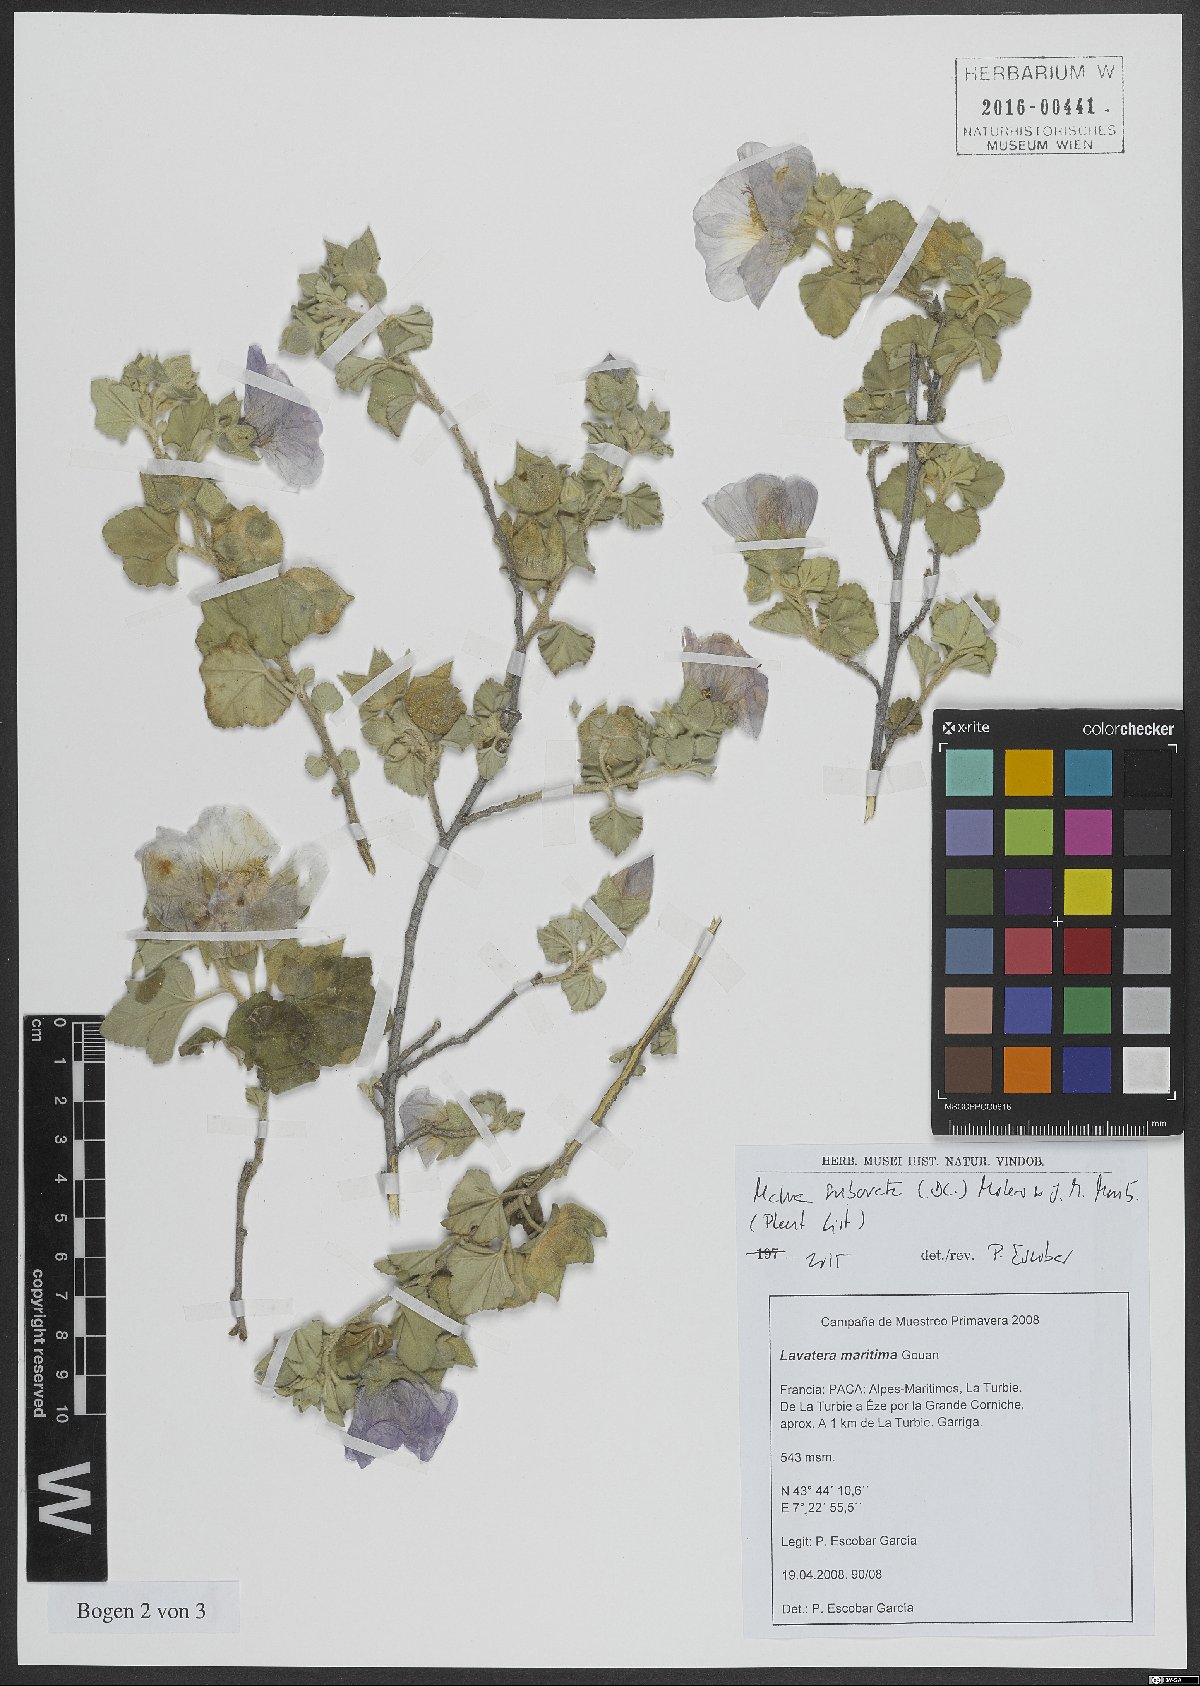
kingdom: Plantae
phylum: Tracheophyta
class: Magnoliopsida
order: Malvales
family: Malvaceae
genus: Malva
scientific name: Malva subovata
